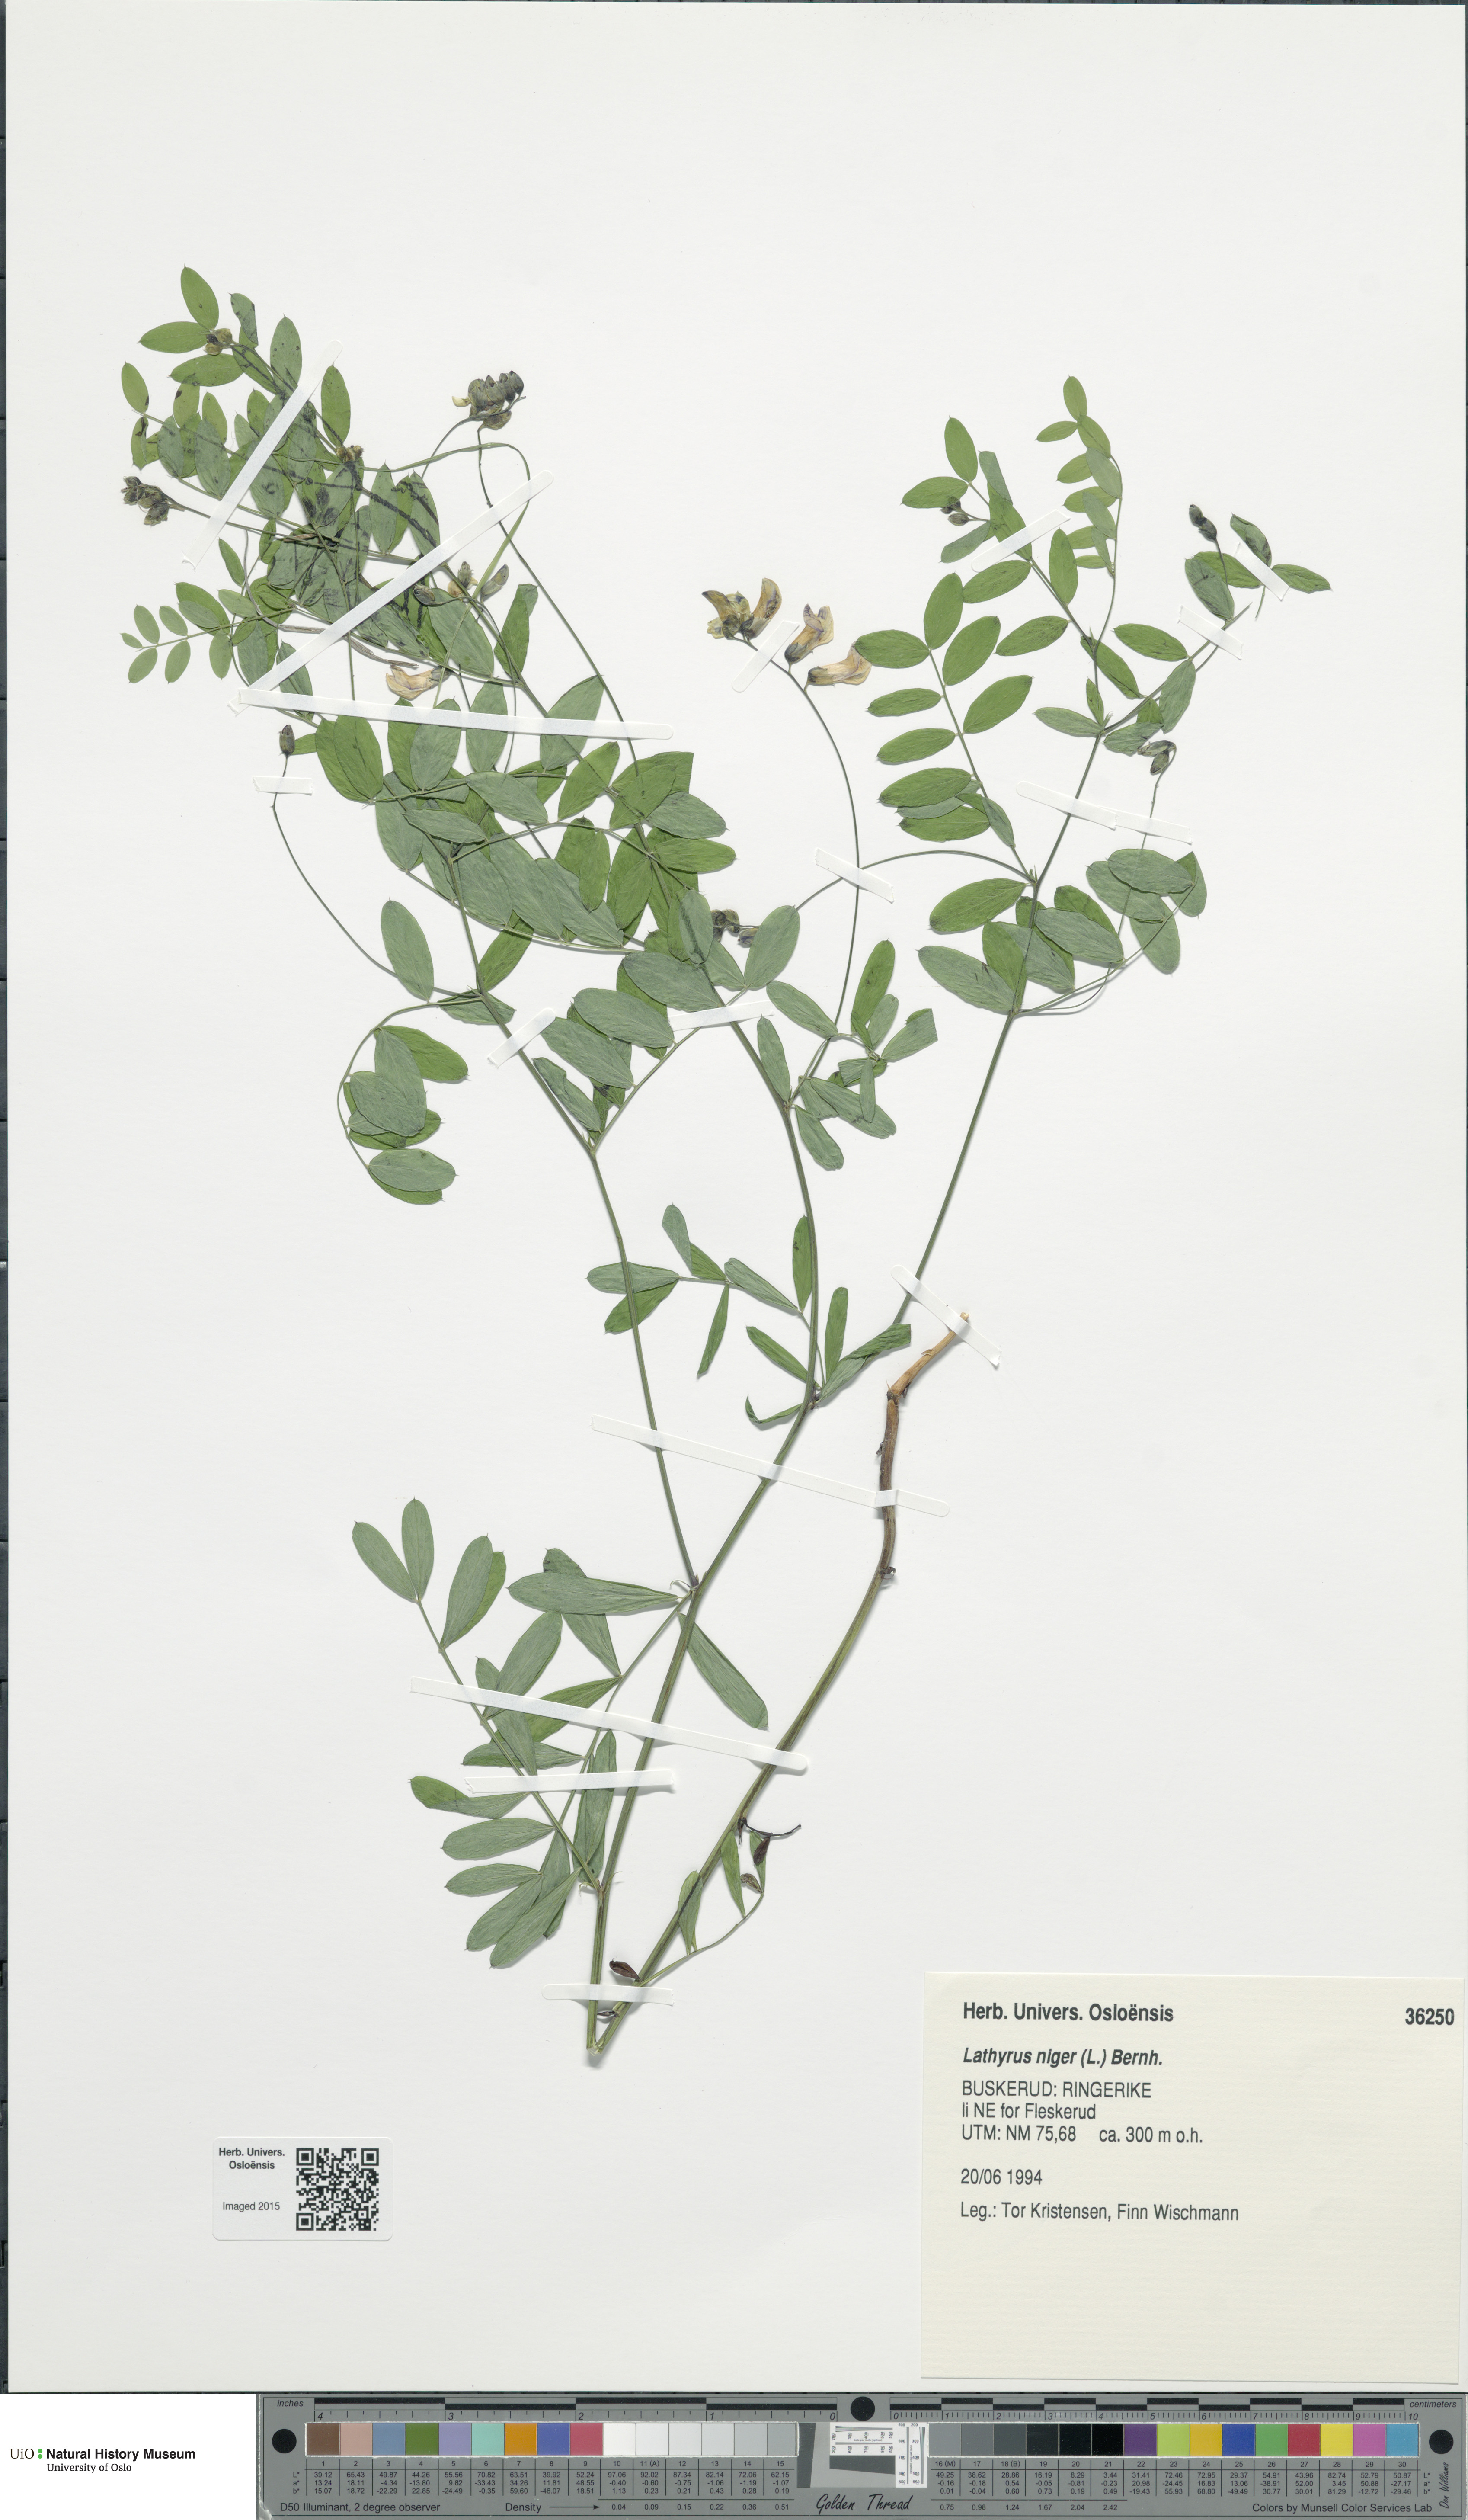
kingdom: Plantae
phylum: Tracheophyta
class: Magnoliopsida
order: Fabales
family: Fabaceae
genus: Lathyrus
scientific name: Lathyrus niger
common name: Black pea
